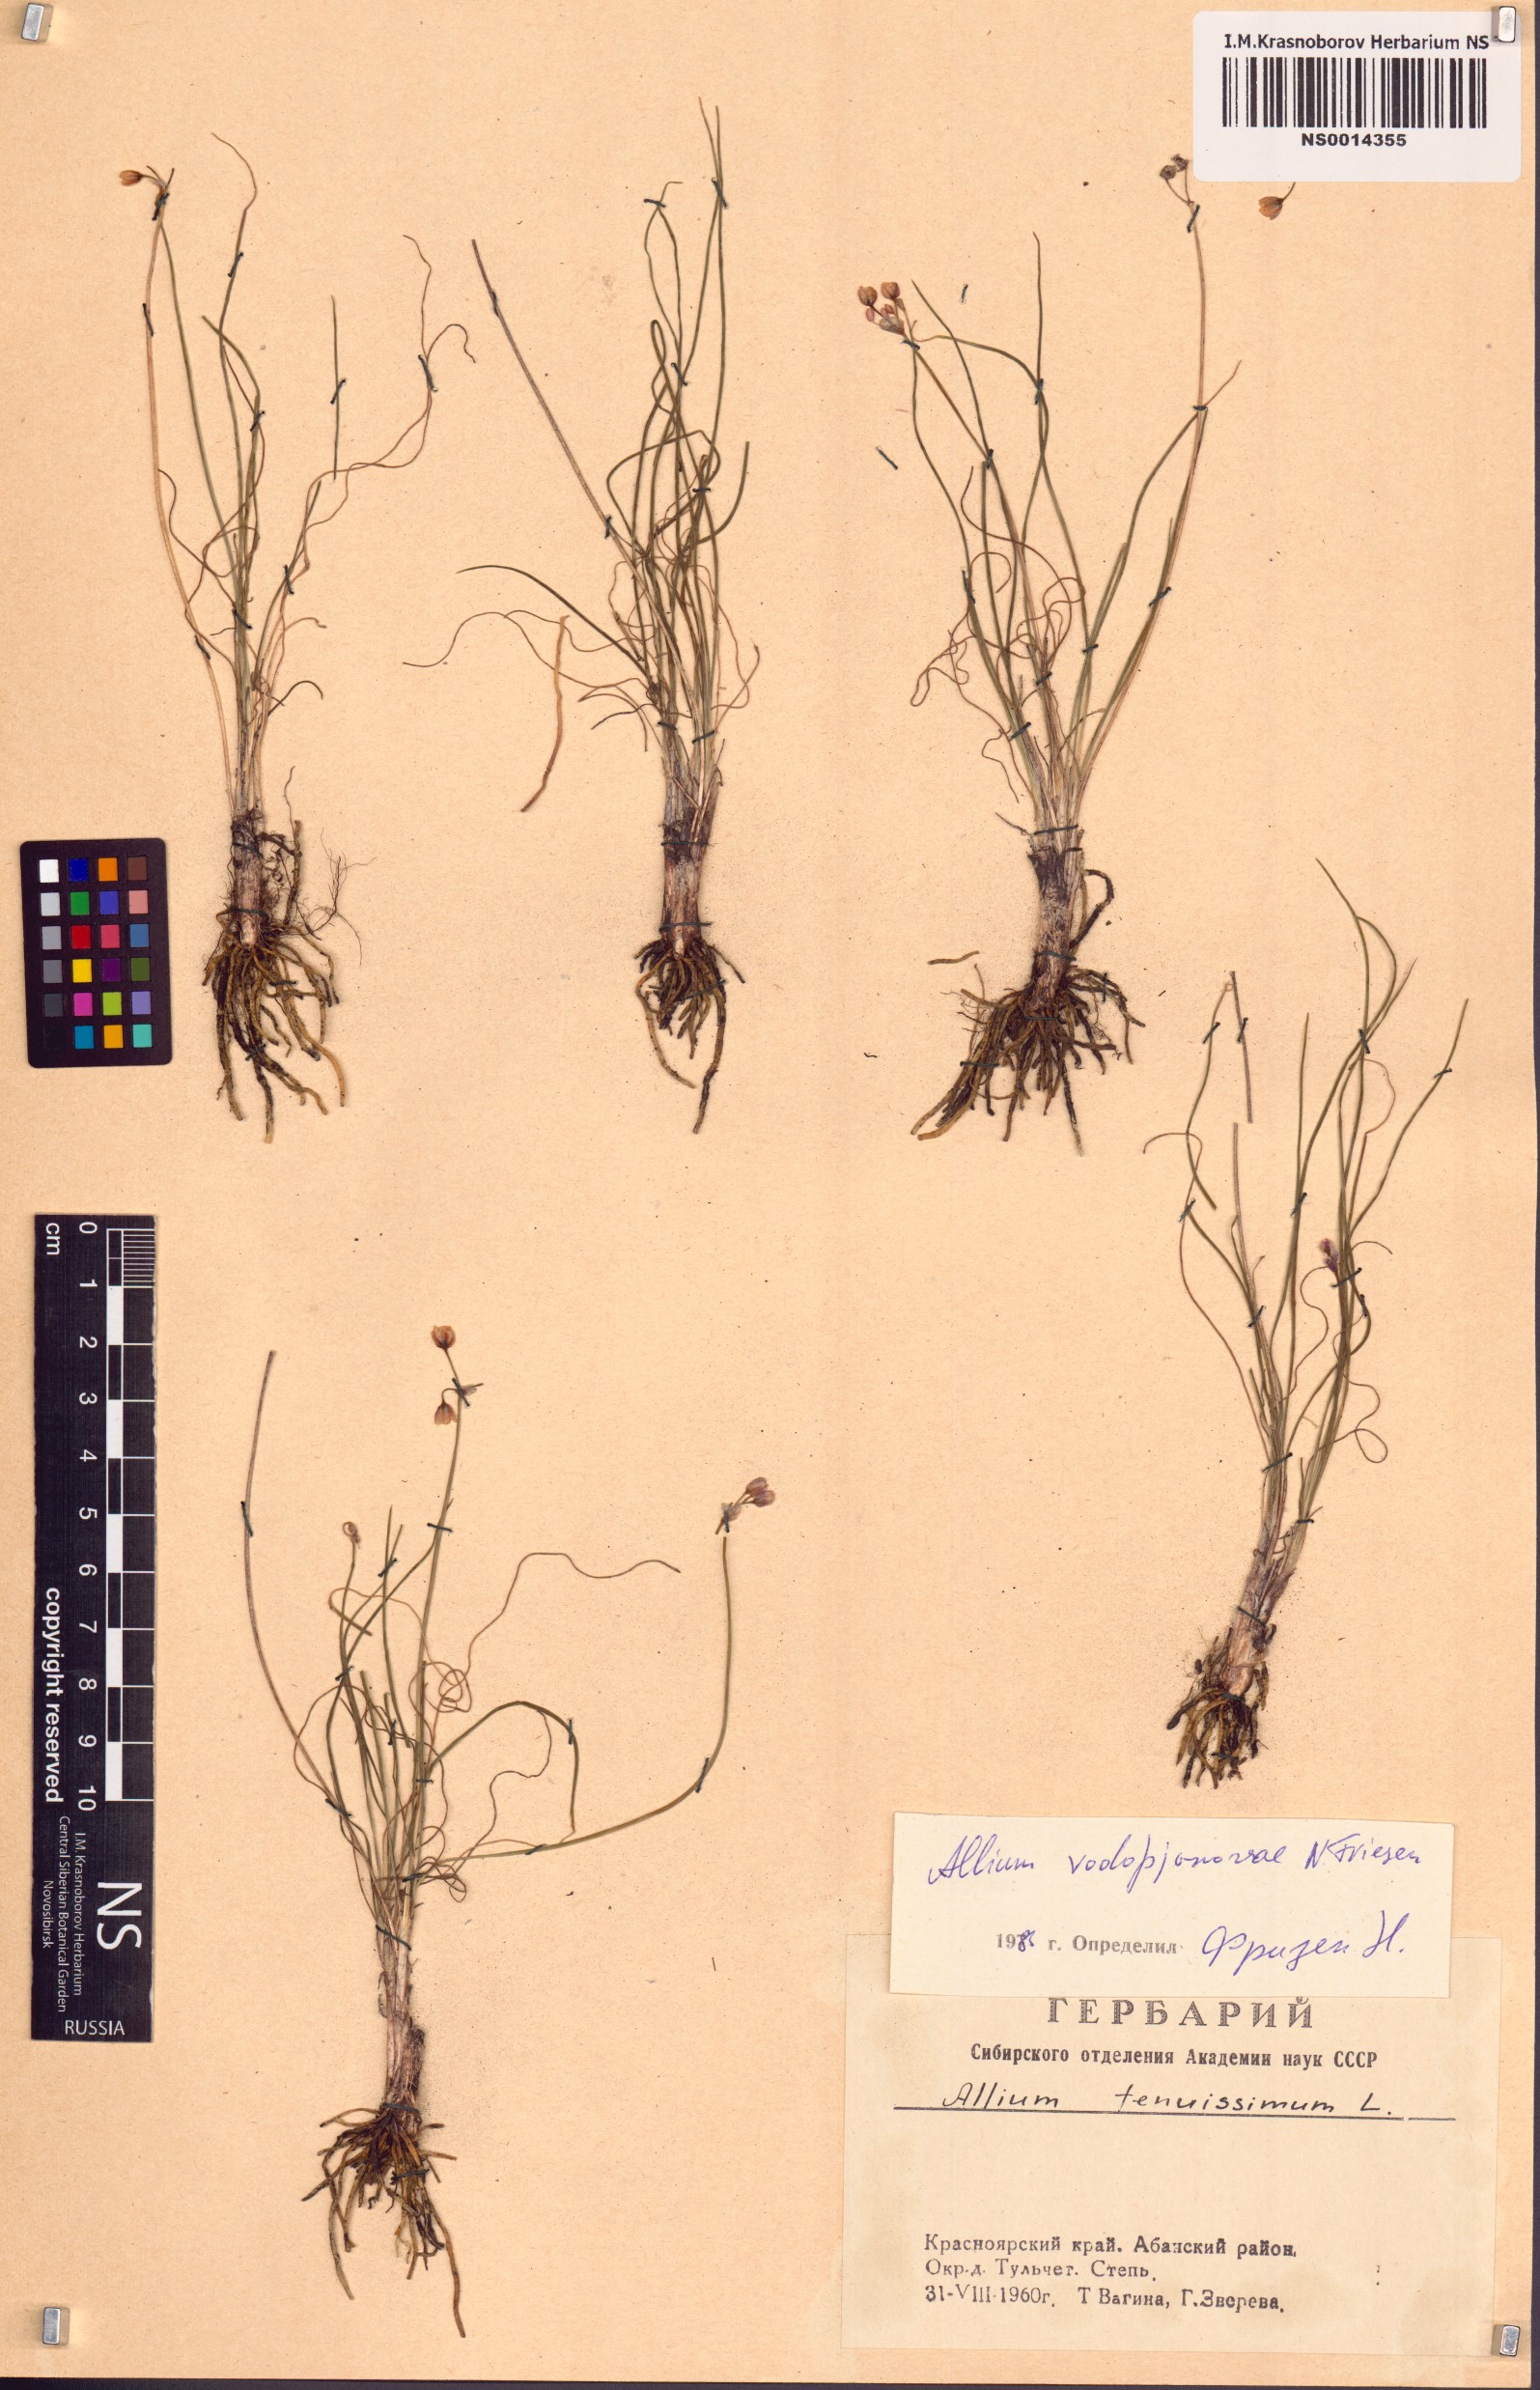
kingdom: Plantae
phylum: Tracheophyta
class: Liliopsida
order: Asparagales
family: Amaryllidaceae
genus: Allium
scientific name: Allium vodopjanovae
